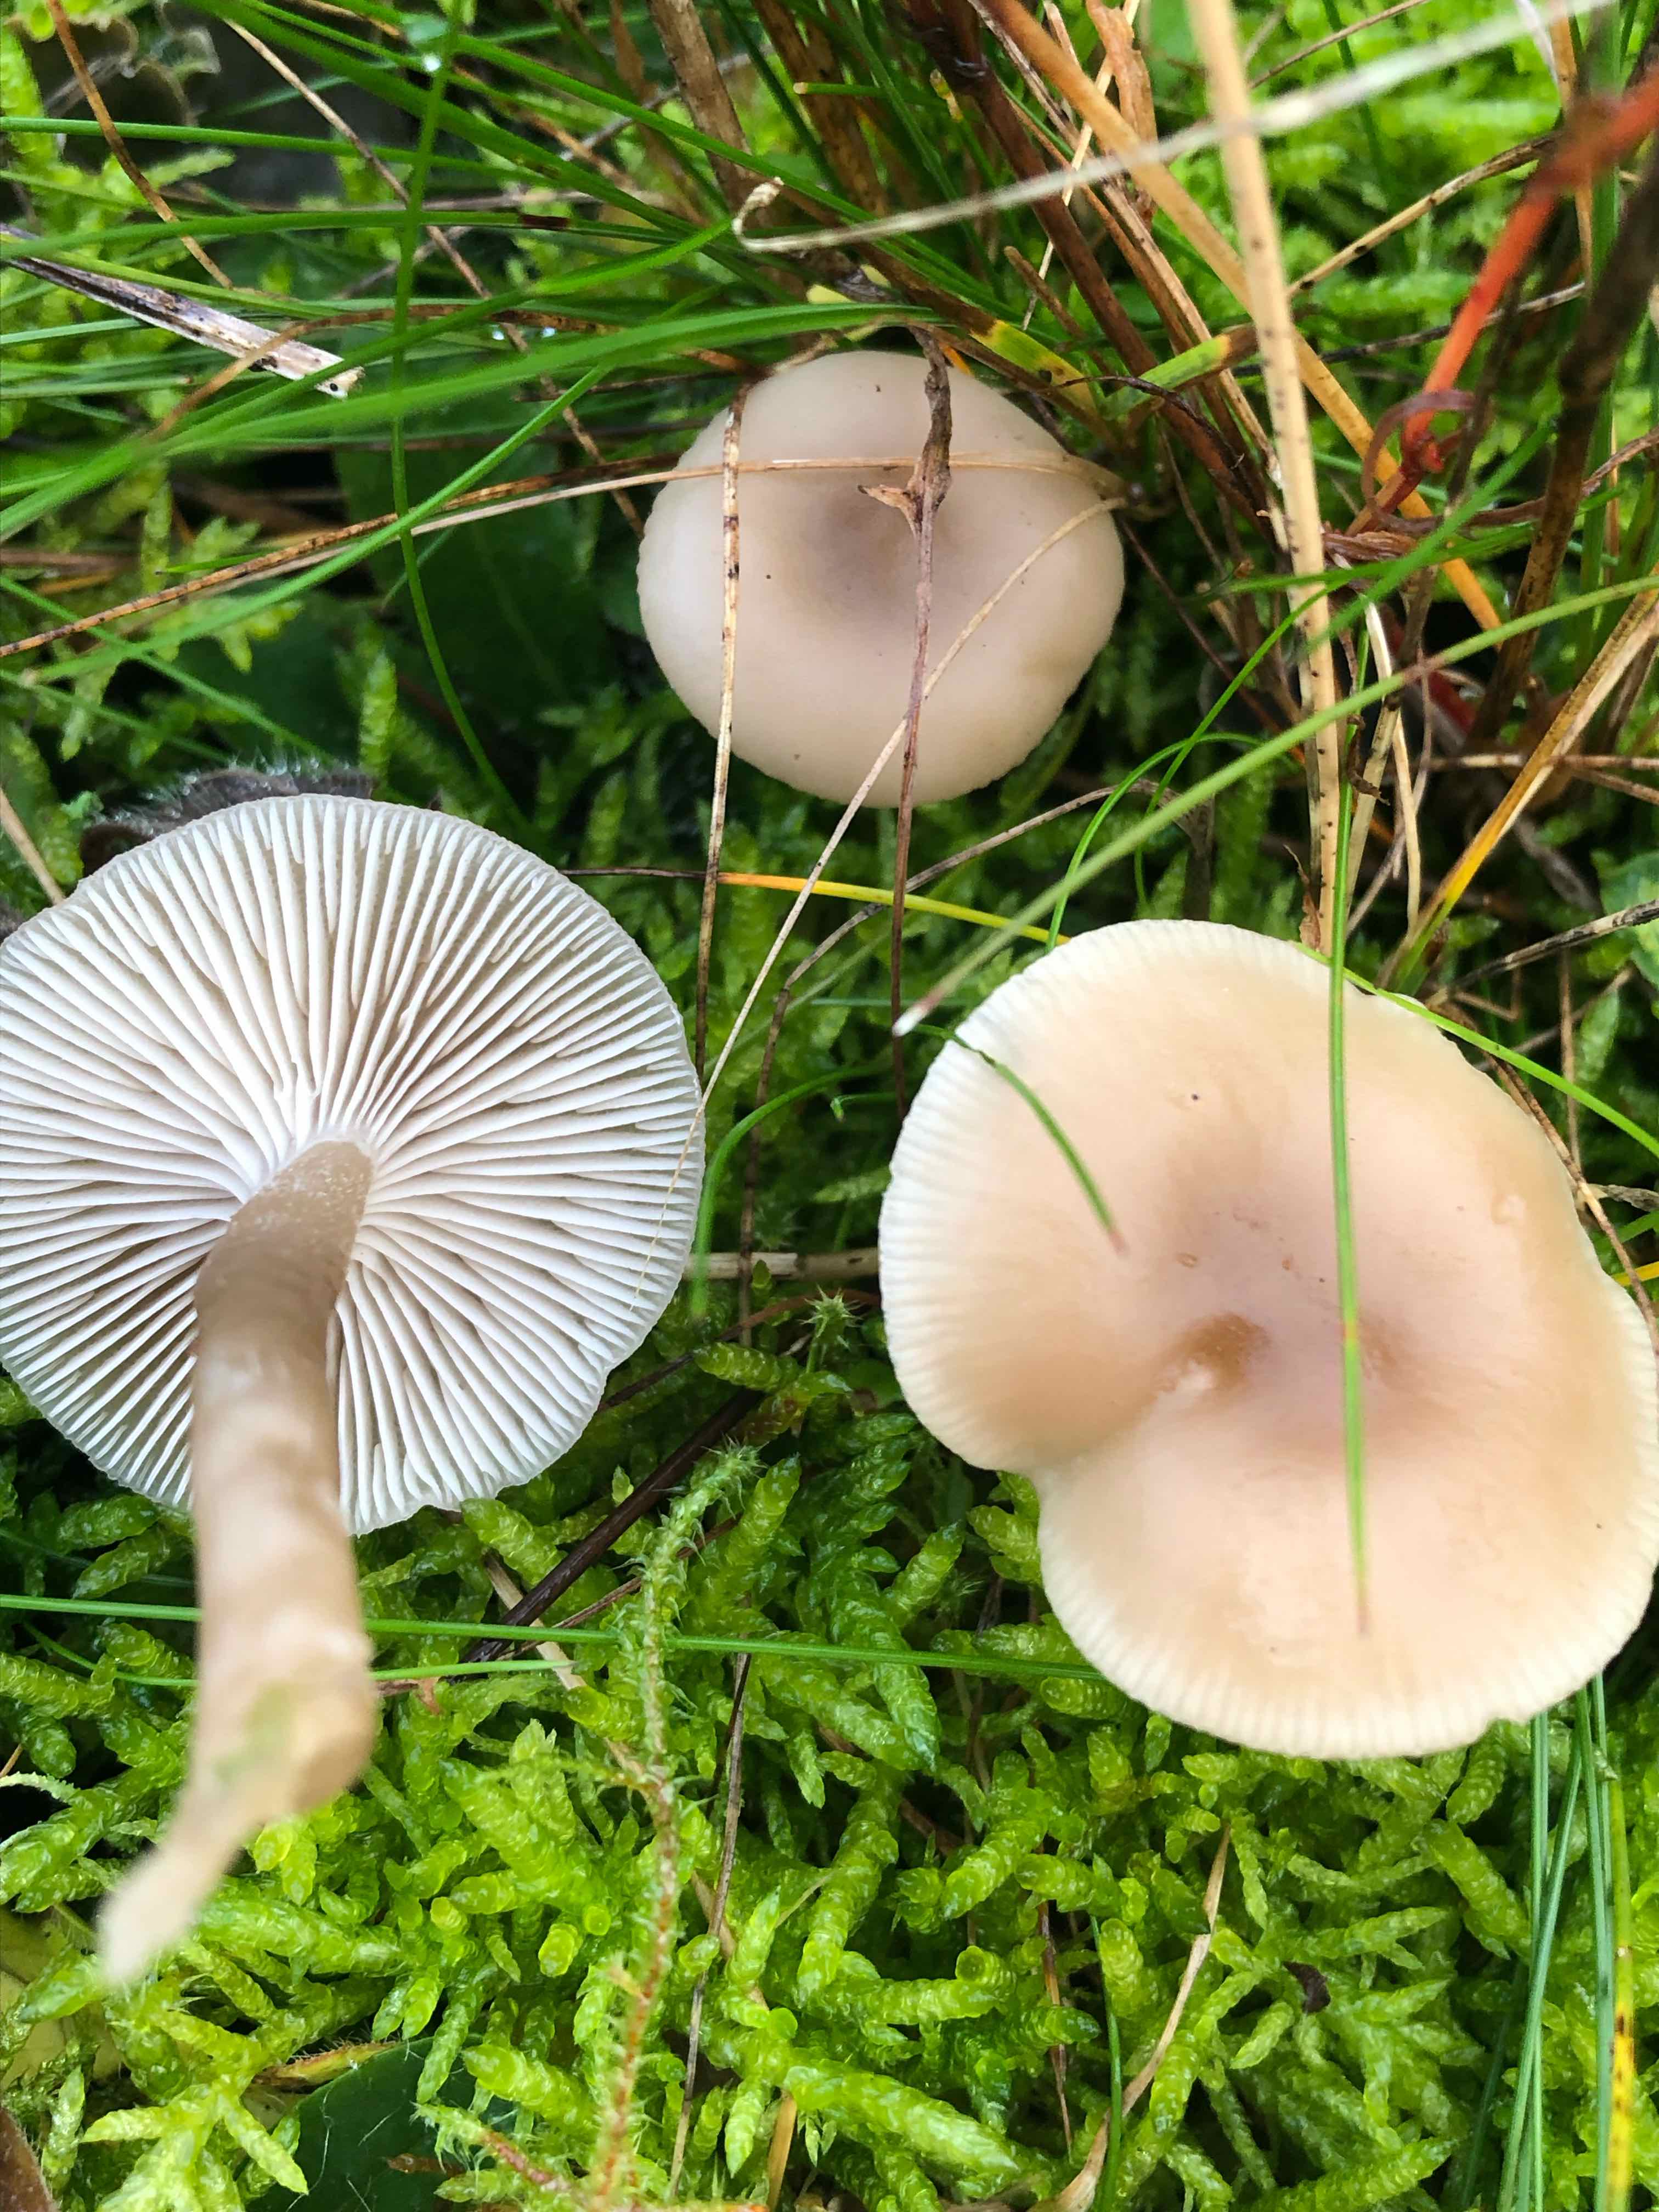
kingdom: Fungi
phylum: Basidiomycota
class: Agaricomycetes
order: Agaricales
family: Tricholomataceae
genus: Clitocybe
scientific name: Clitocybe fragrans
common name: vellugtende tragthat
